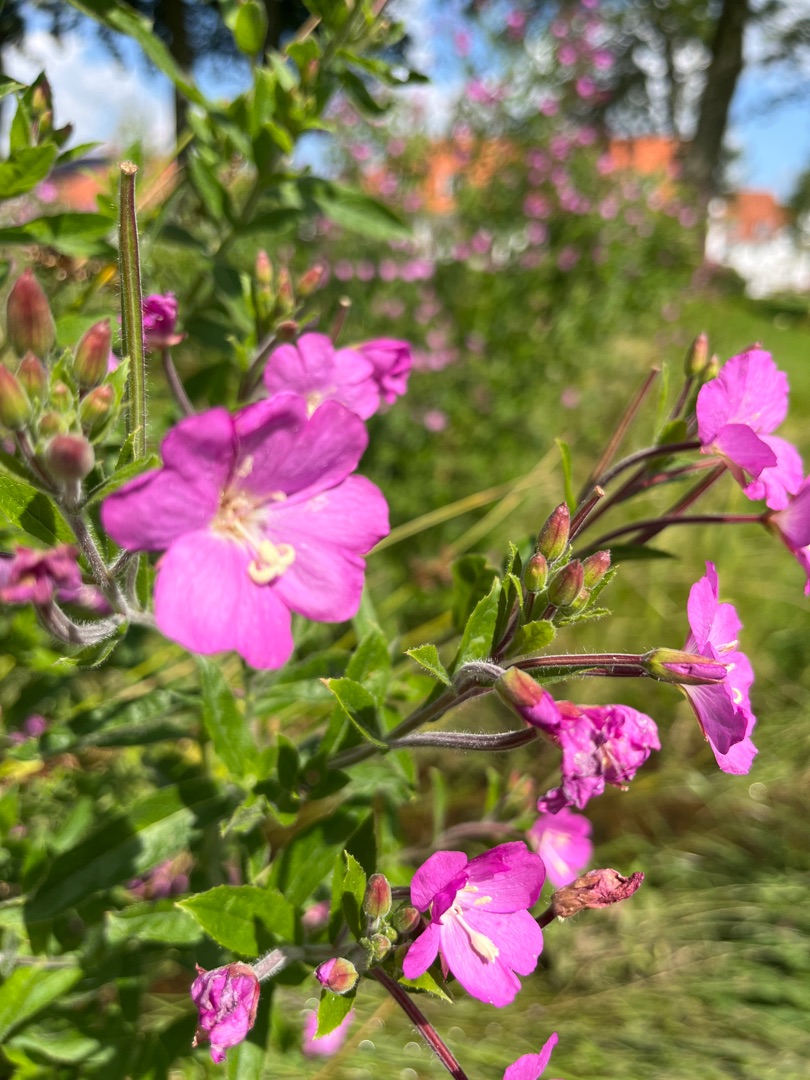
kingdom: Plantae
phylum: Tracheophyta
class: Magnoliopsida
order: Myrtales
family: Onagraceae
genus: Epilobium
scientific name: Epilobium hirsutum
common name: Lådden dueurt
